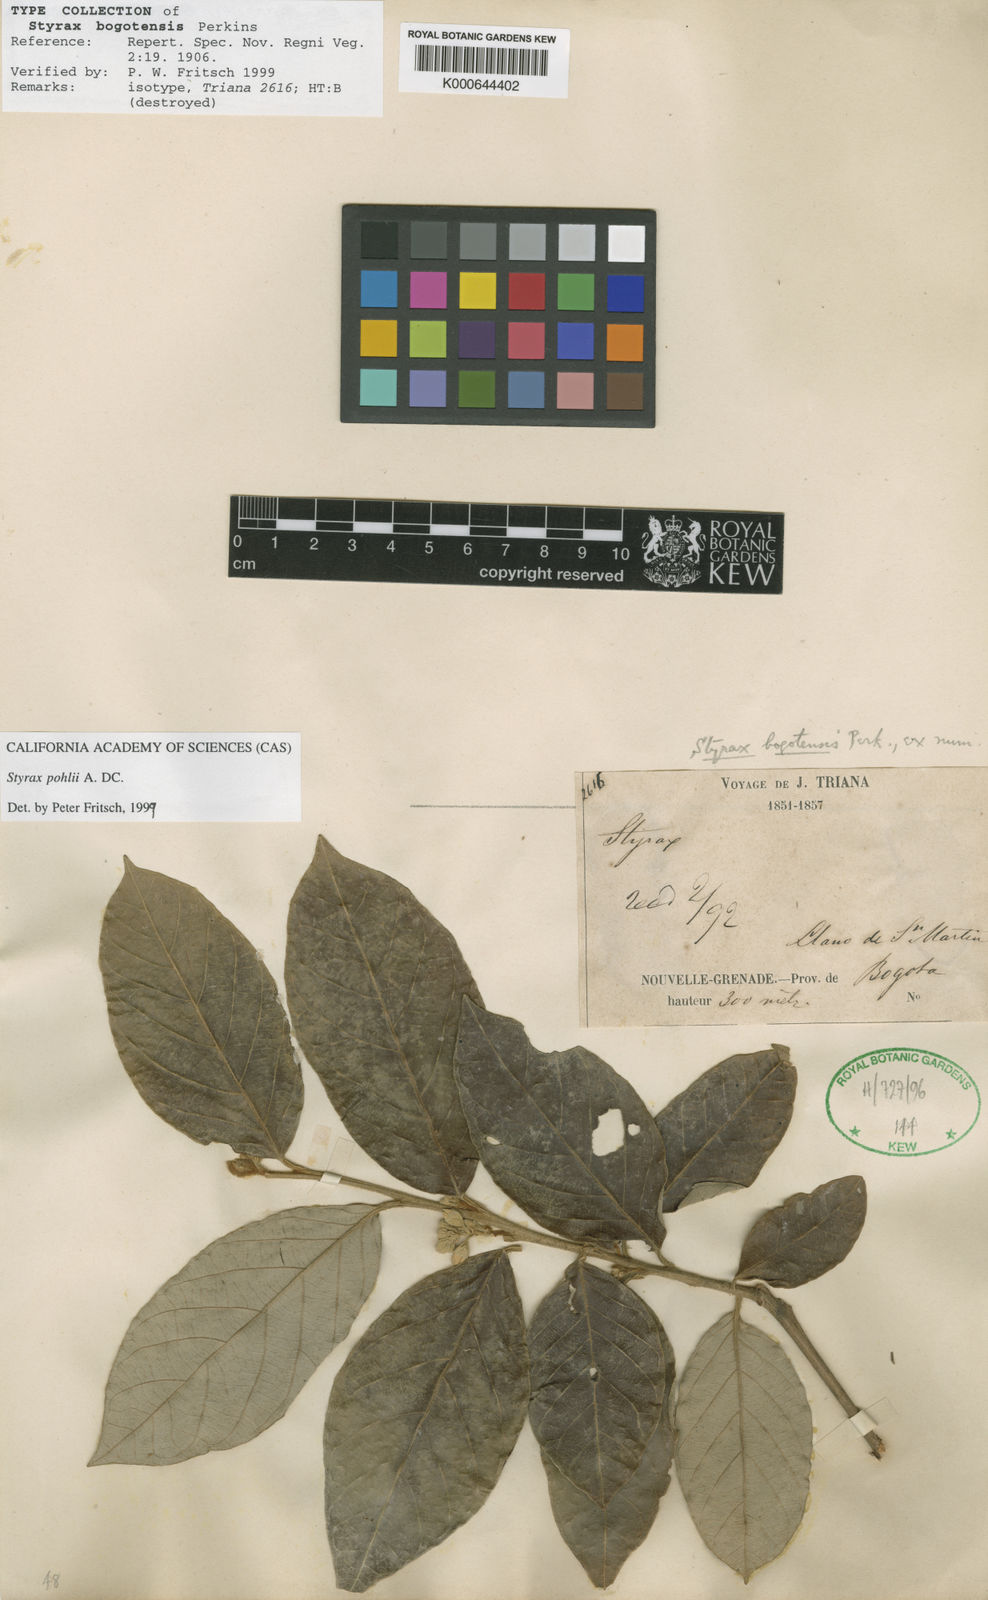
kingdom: Plantae
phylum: Tracheophyta
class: Magnoliopsida
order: Ericales
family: Styracaceae
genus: Styrax
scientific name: Styrax pohlii
